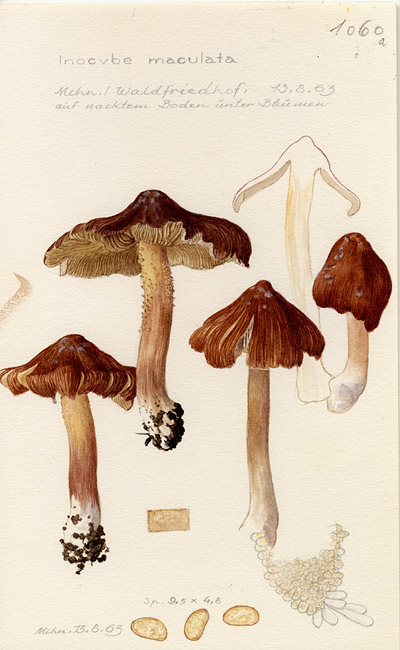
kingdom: Fungi
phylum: Basidiomycota
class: Agaricomycetes
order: Agaricales
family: Inocybaceae
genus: Inosperma
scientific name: Inosperma maculatum
